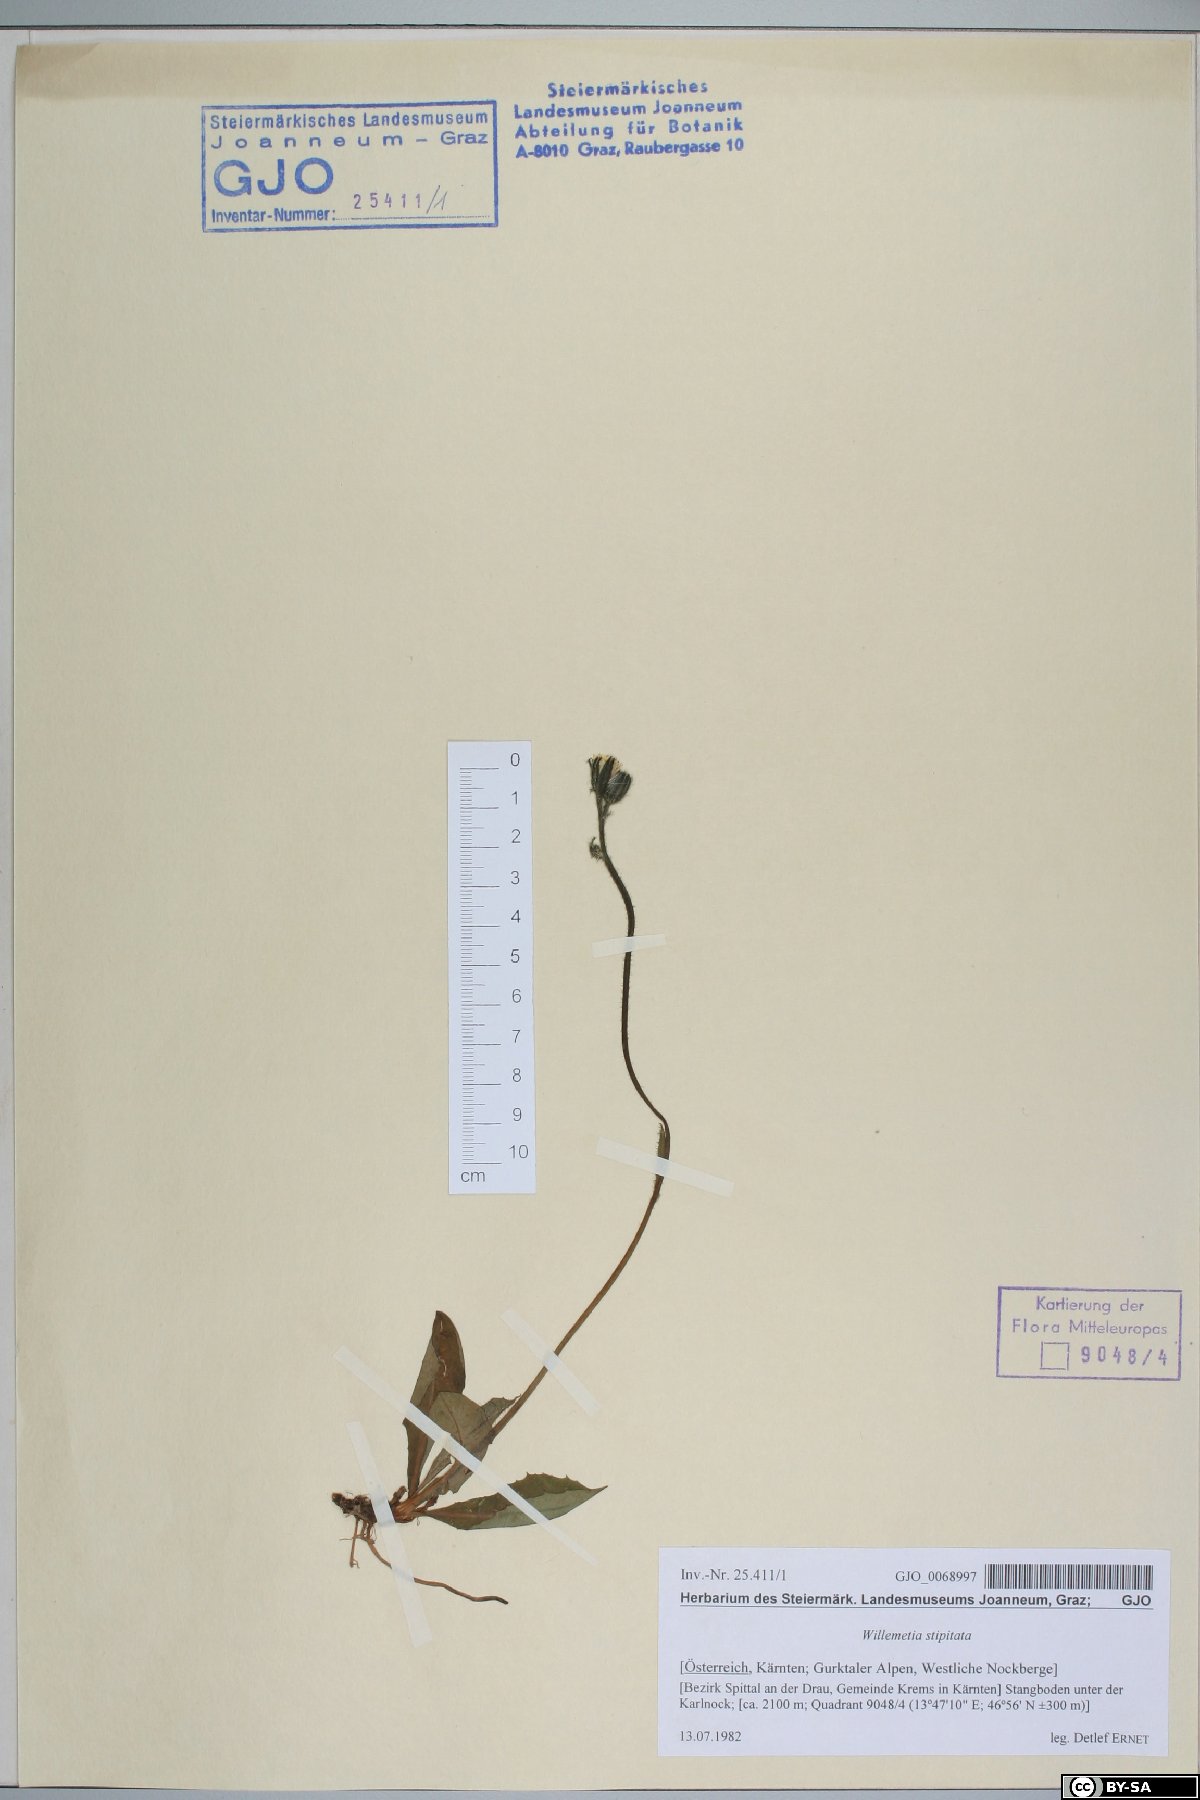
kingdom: Plantae
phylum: Tracheophyta
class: Magnoliopsida
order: Asterales
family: Asteraceae
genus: Willemetia
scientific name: Willemetia stipitata
